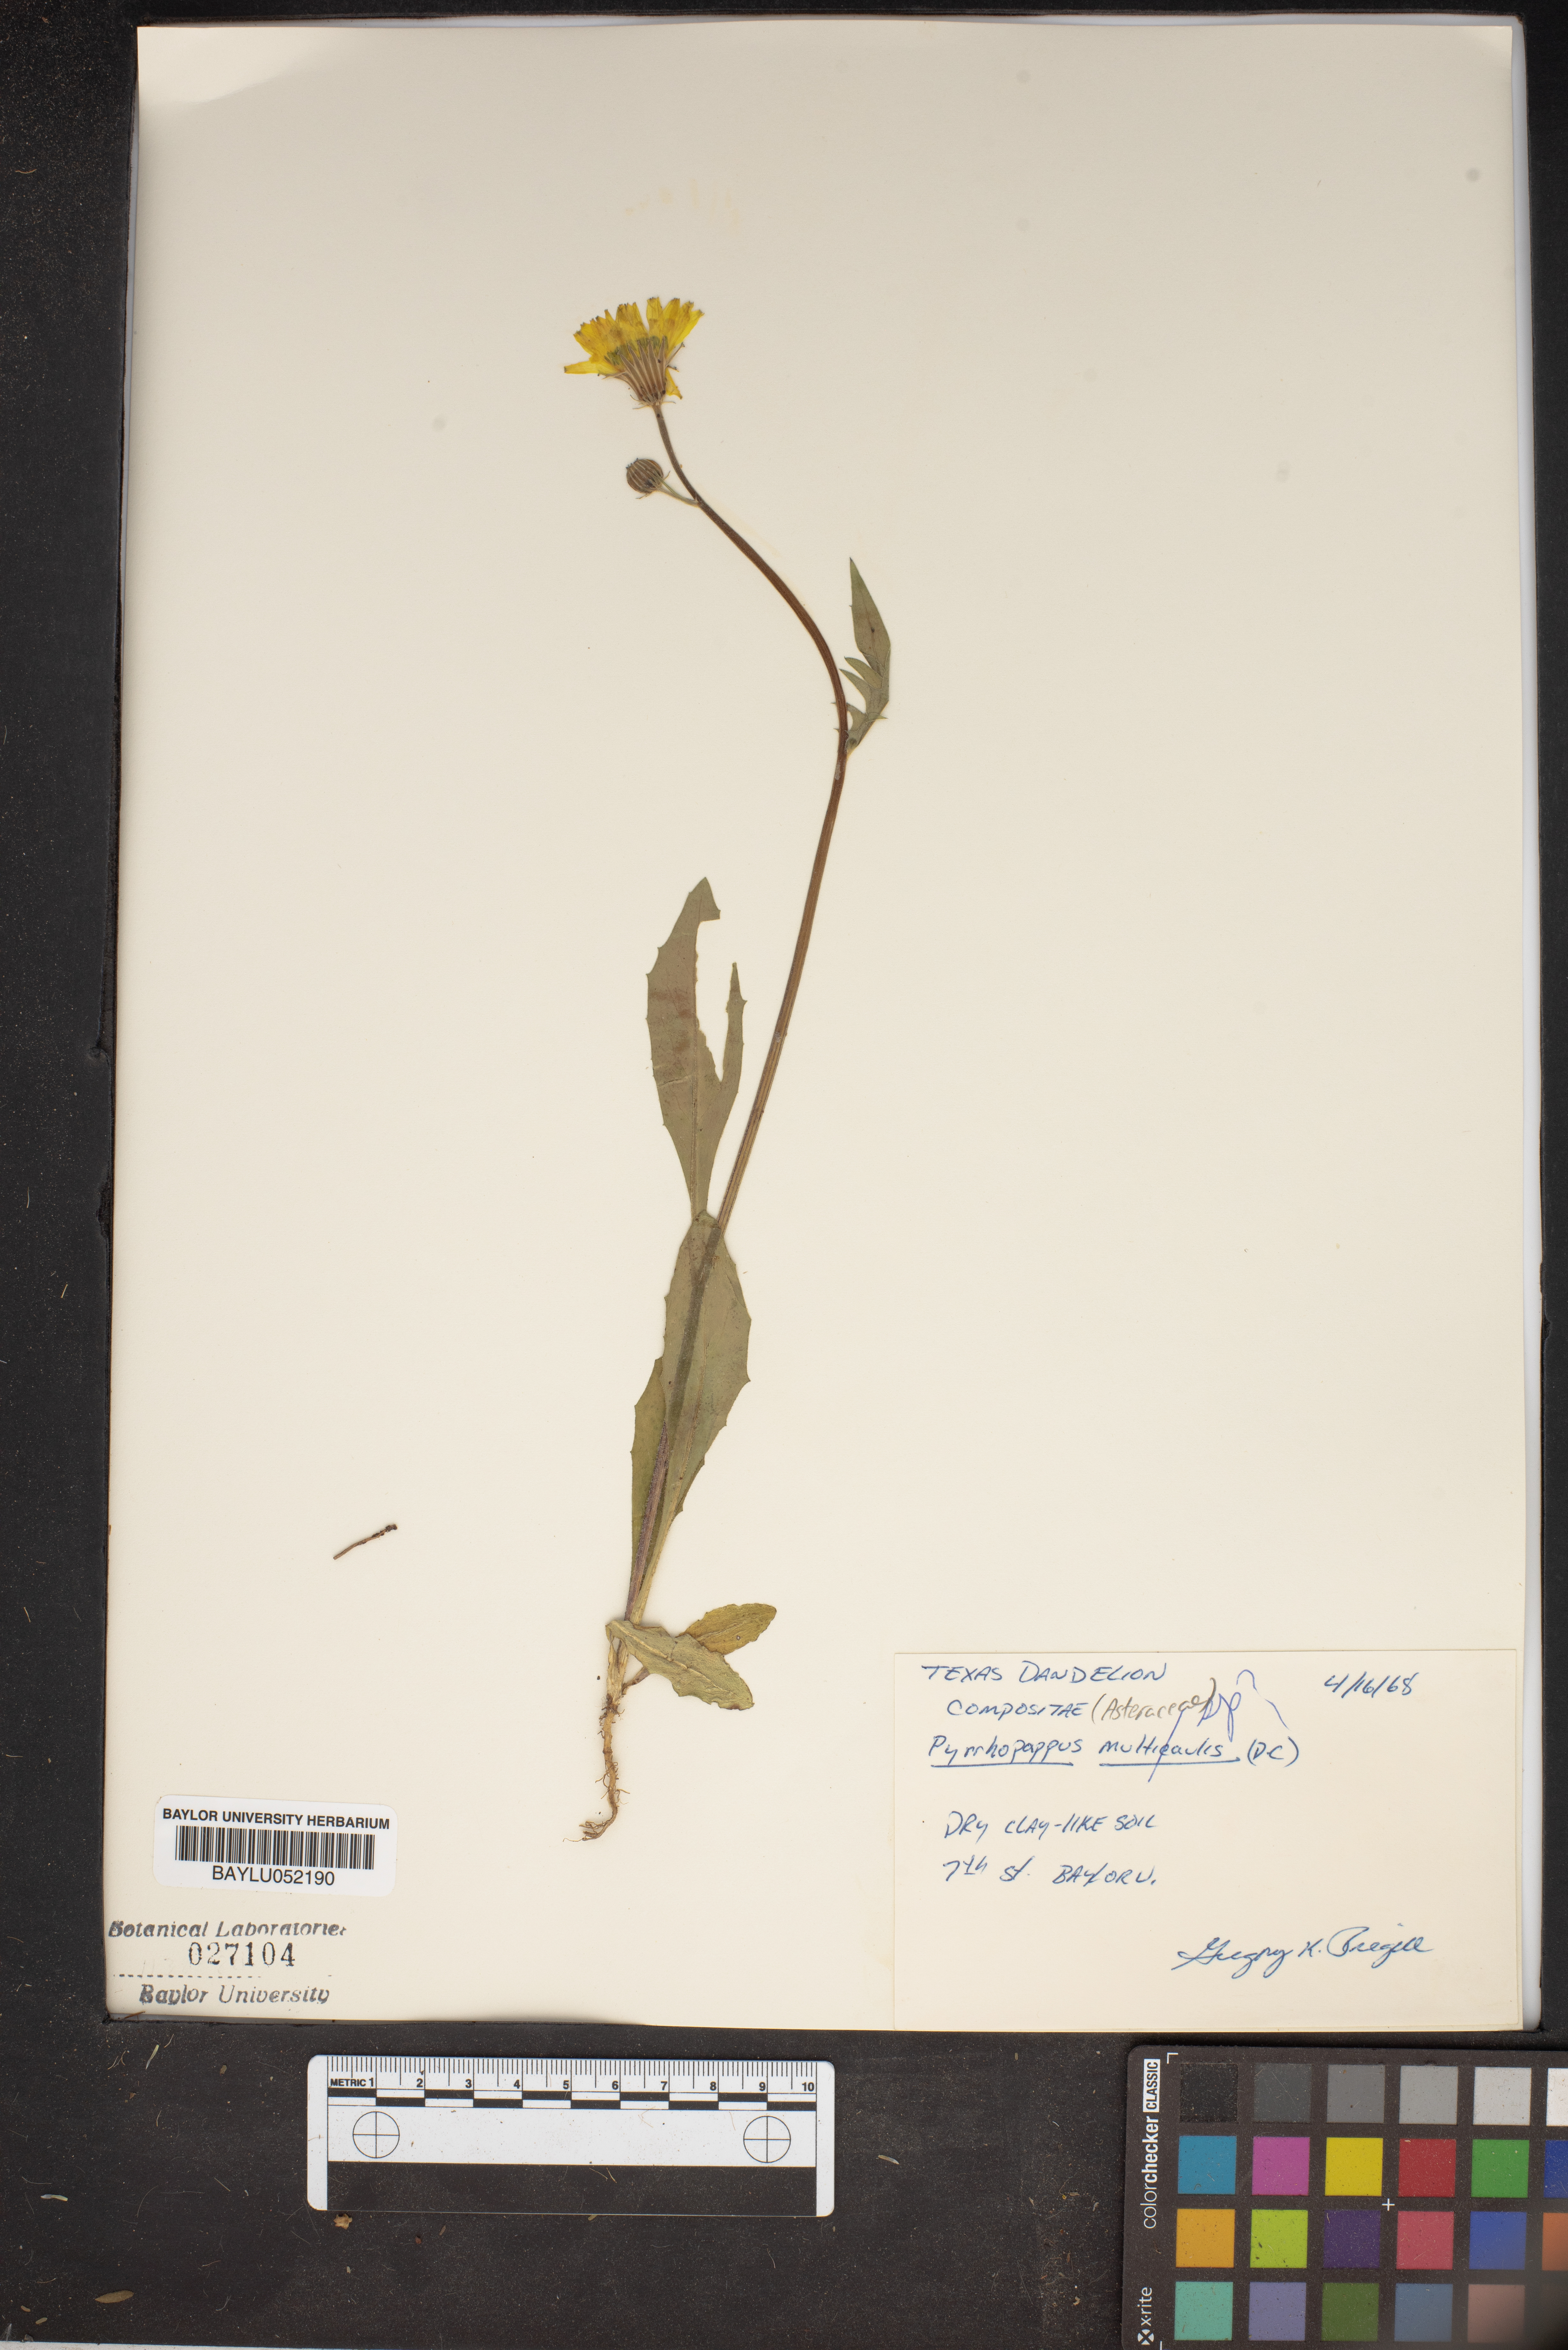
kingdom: Plantae
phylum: Tracheophyta
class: Magnoliopsida
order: Asterales
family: Asteraceae
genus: Pyrrhopappus
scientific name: Pyrrhopappus pauciflorus
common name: Texas false dandelion
